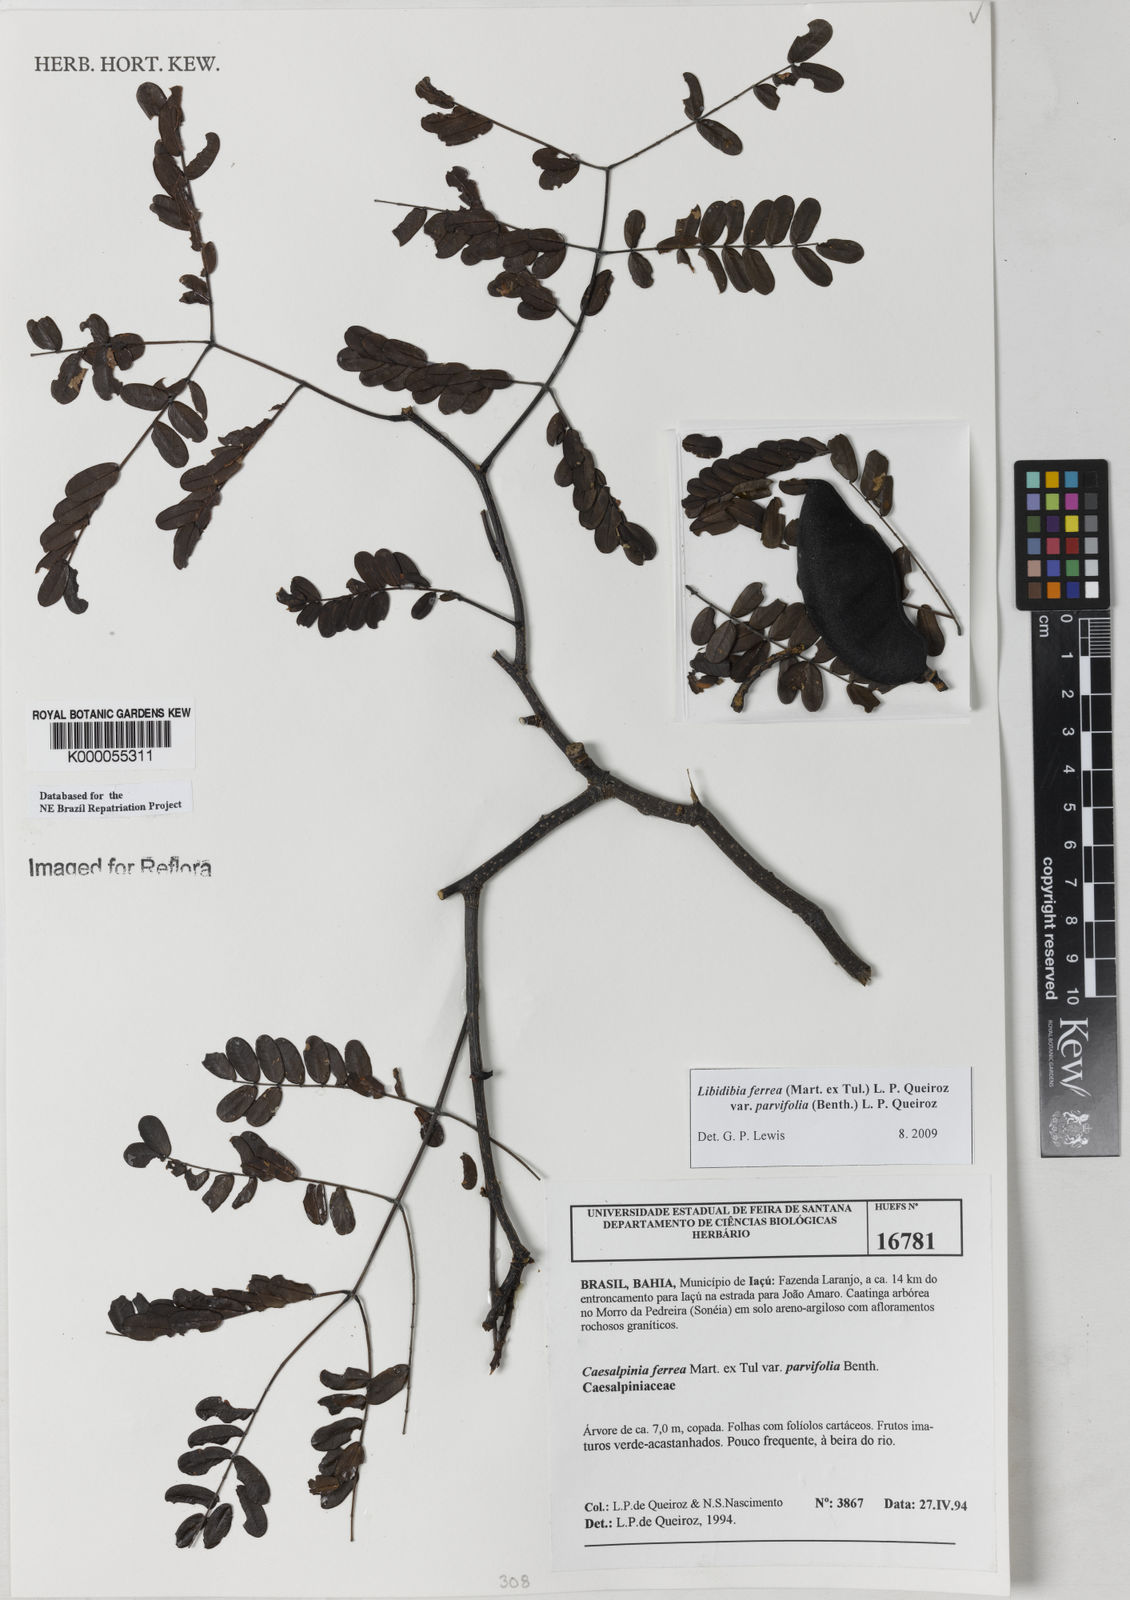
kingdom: Plantae
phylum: Tracheophyta
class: Magnoliopsida
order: Fabales
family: Fabaceae
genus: Libidibia
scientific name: Libidibia ferrea
